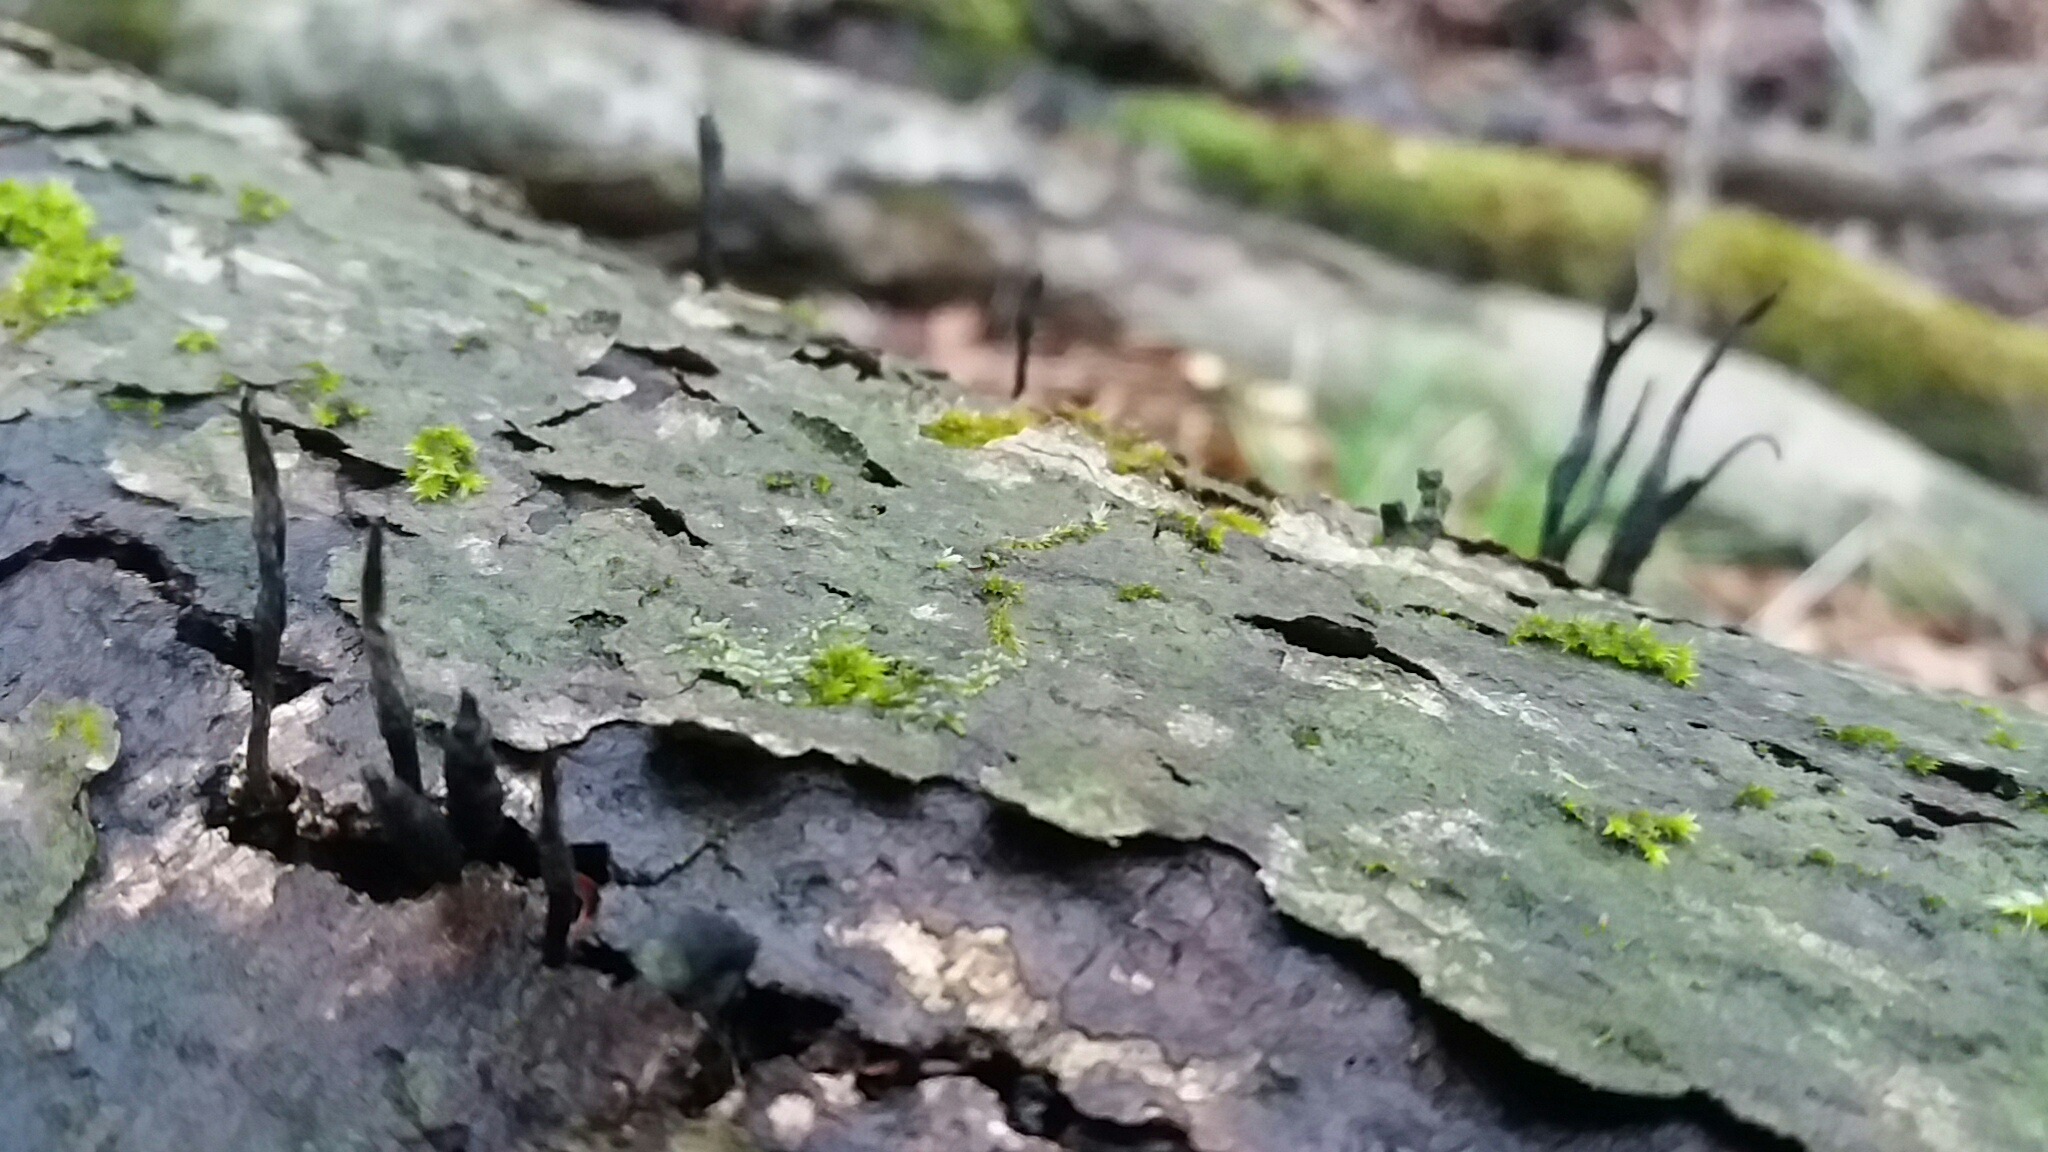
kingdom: Fungi
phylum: Ascomycota
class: Sordariomycetes
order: Xylariales
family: Xylariaceae
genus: Xylaria
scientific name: Xylaria hypoxylon
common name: grenet stødsvamp
